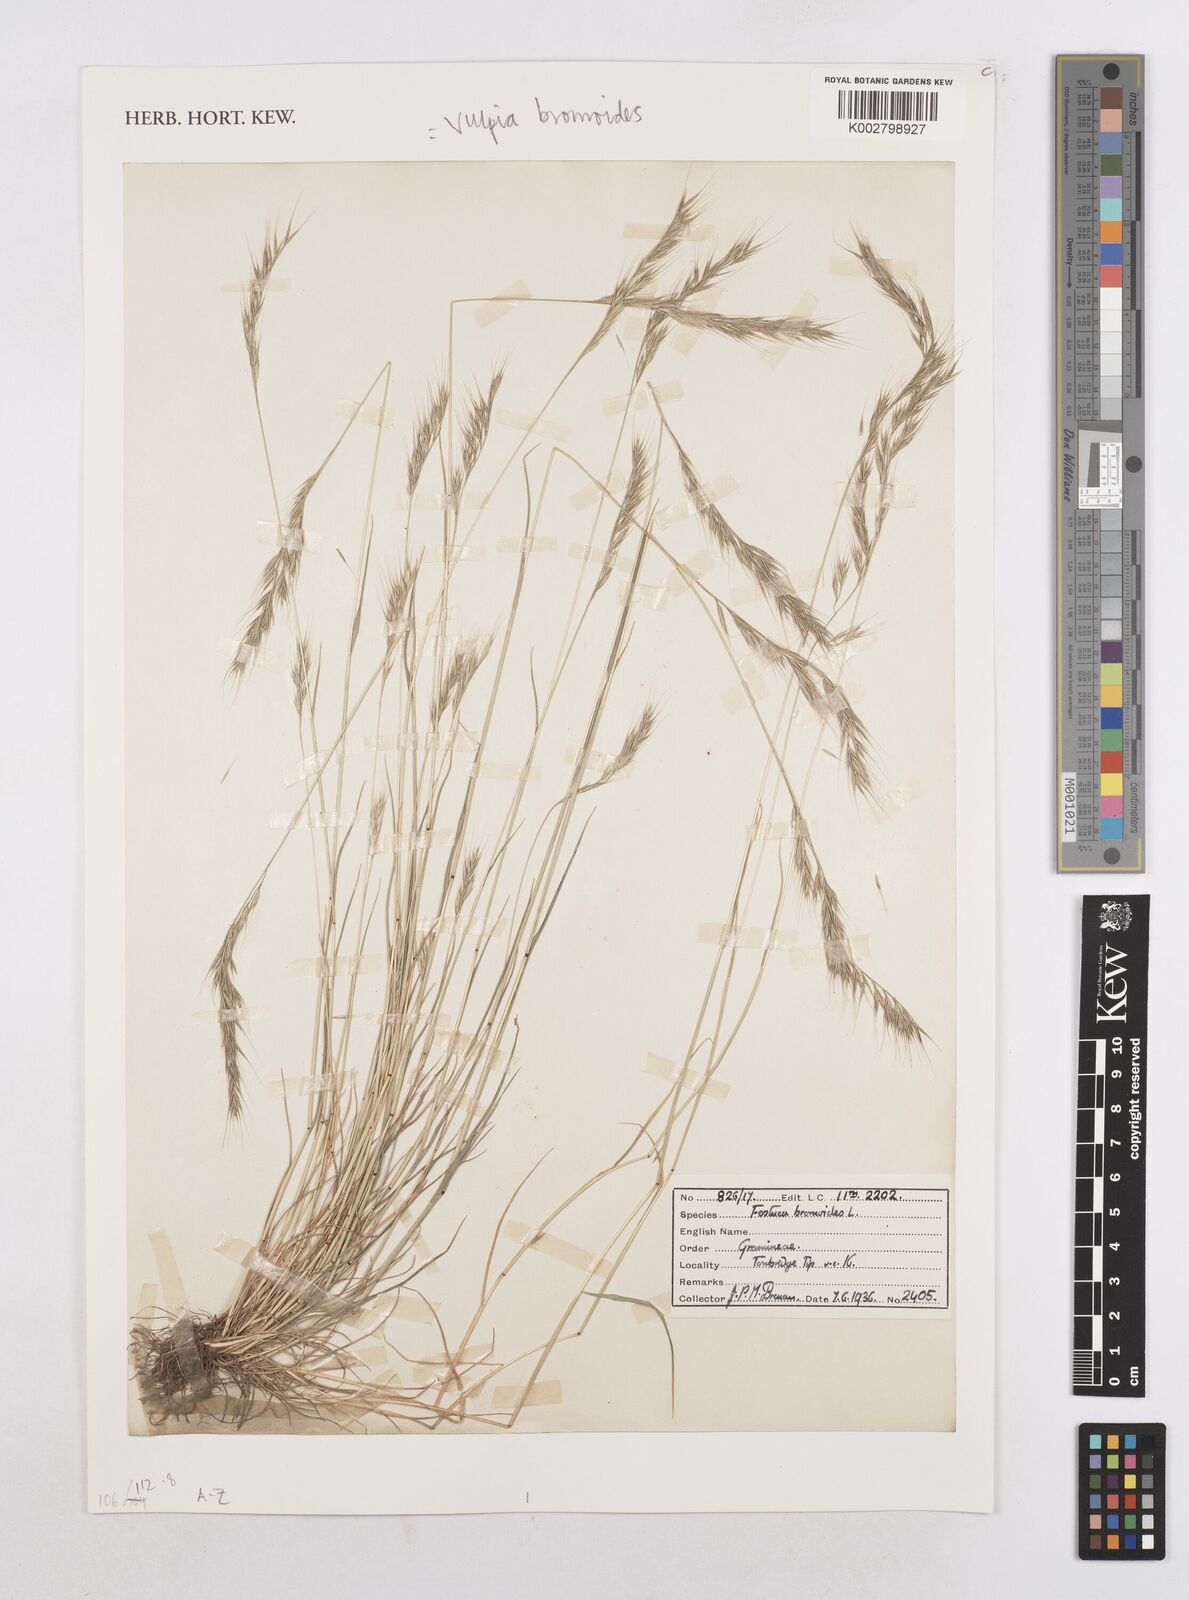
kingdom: Plantae
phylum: Tracheophyta
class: Liliopsida
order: Poales
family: Poaceae
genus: Festuca
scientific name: Festuca bromoides
